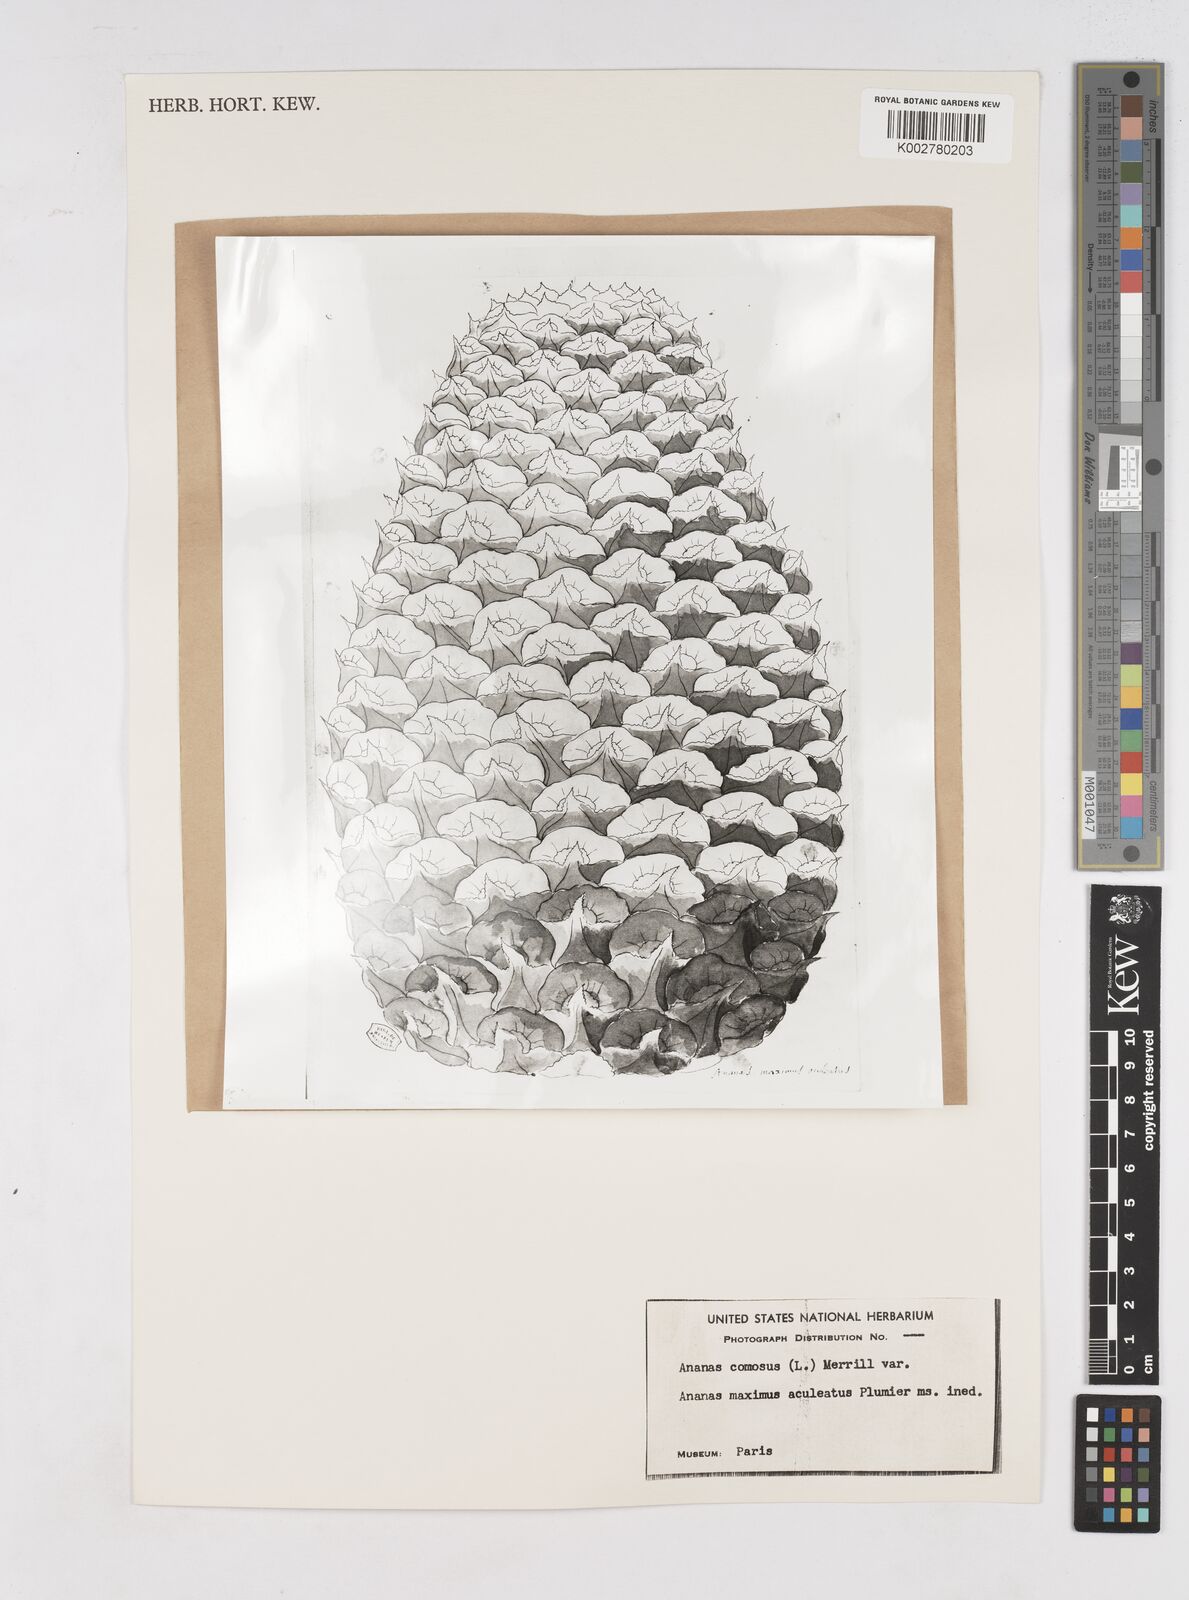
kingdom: Plantae
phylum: Tracheophyta
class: Liliopsida
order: Poales
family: Bromeliaceae
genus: Ananas
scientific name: Ananas
